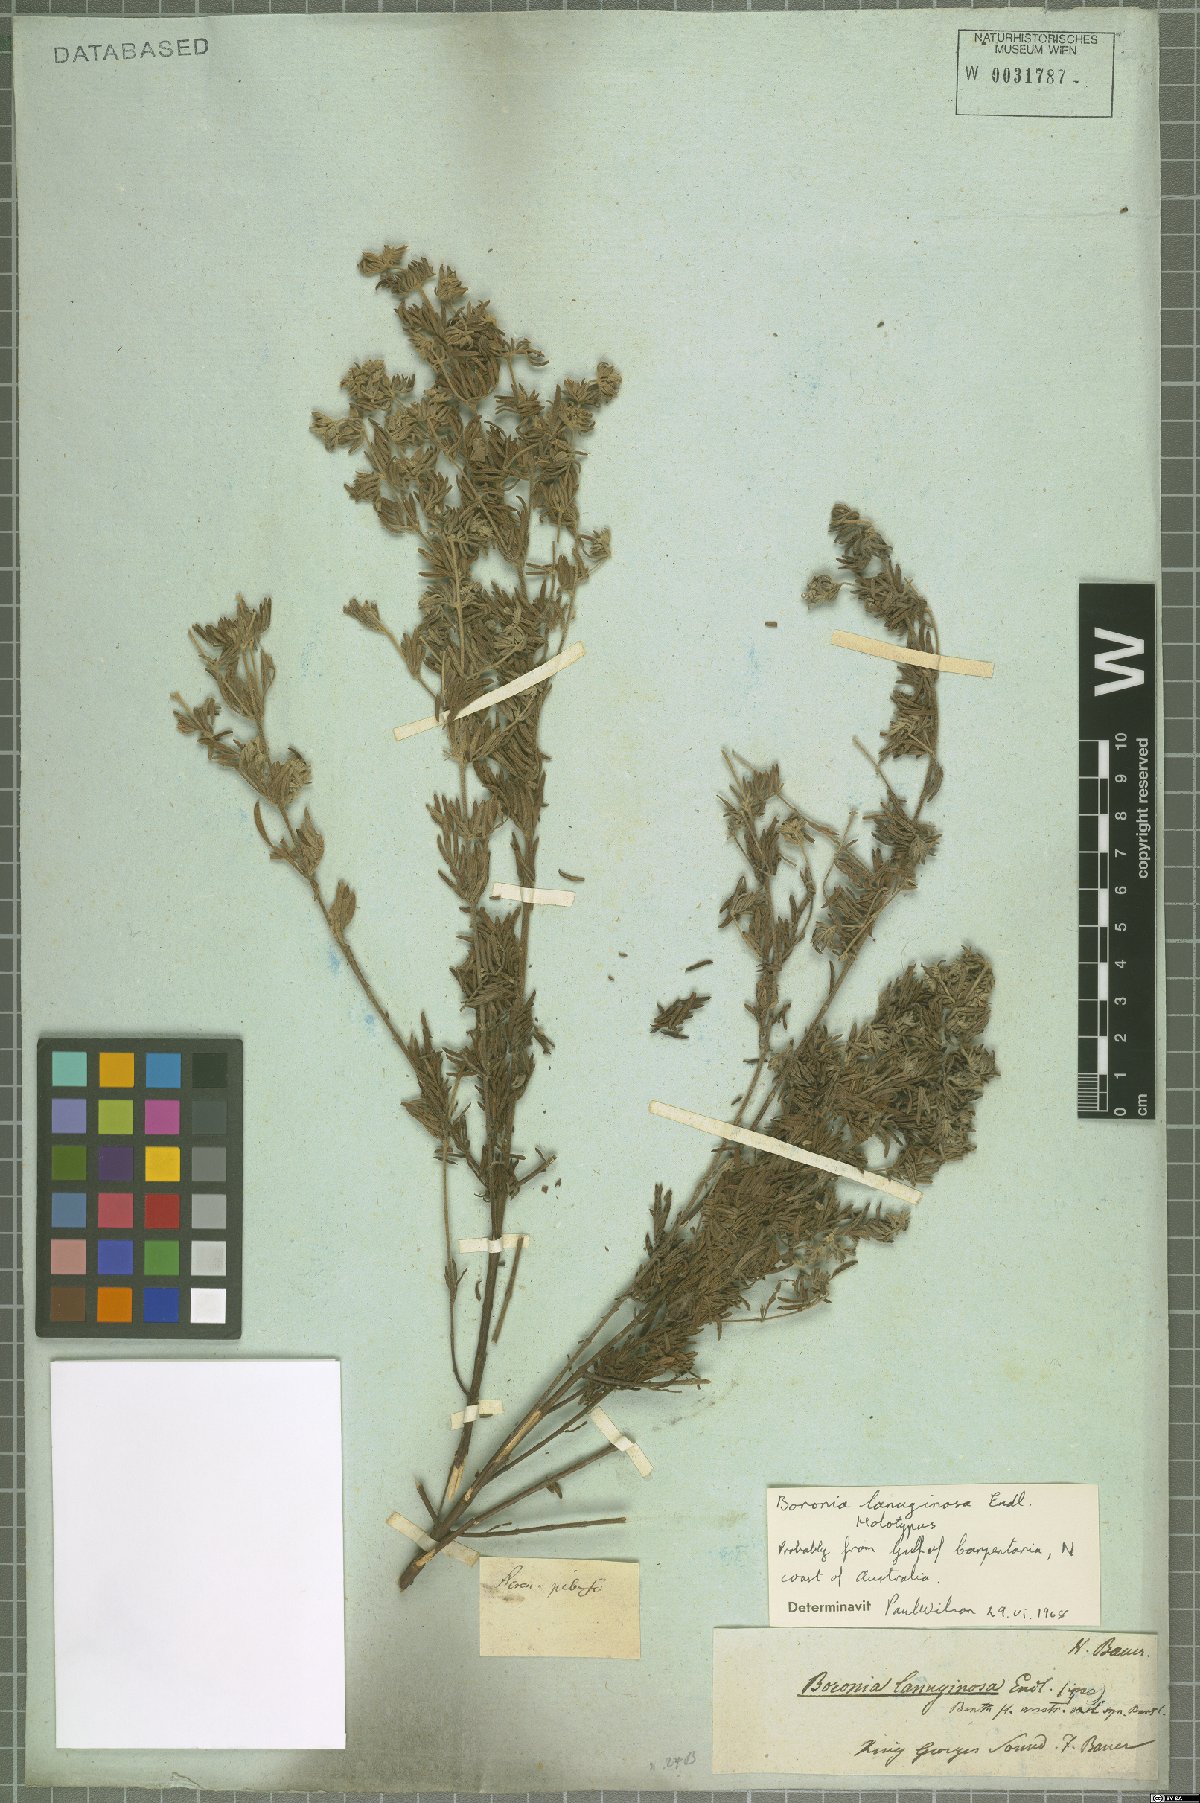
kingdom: Plantae
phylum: Tracheophyta
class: Magnoliopsida
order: Sapindales
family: Rutaceae
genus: Boronia
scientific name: Boronia lanuginosa
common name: Red boronia
